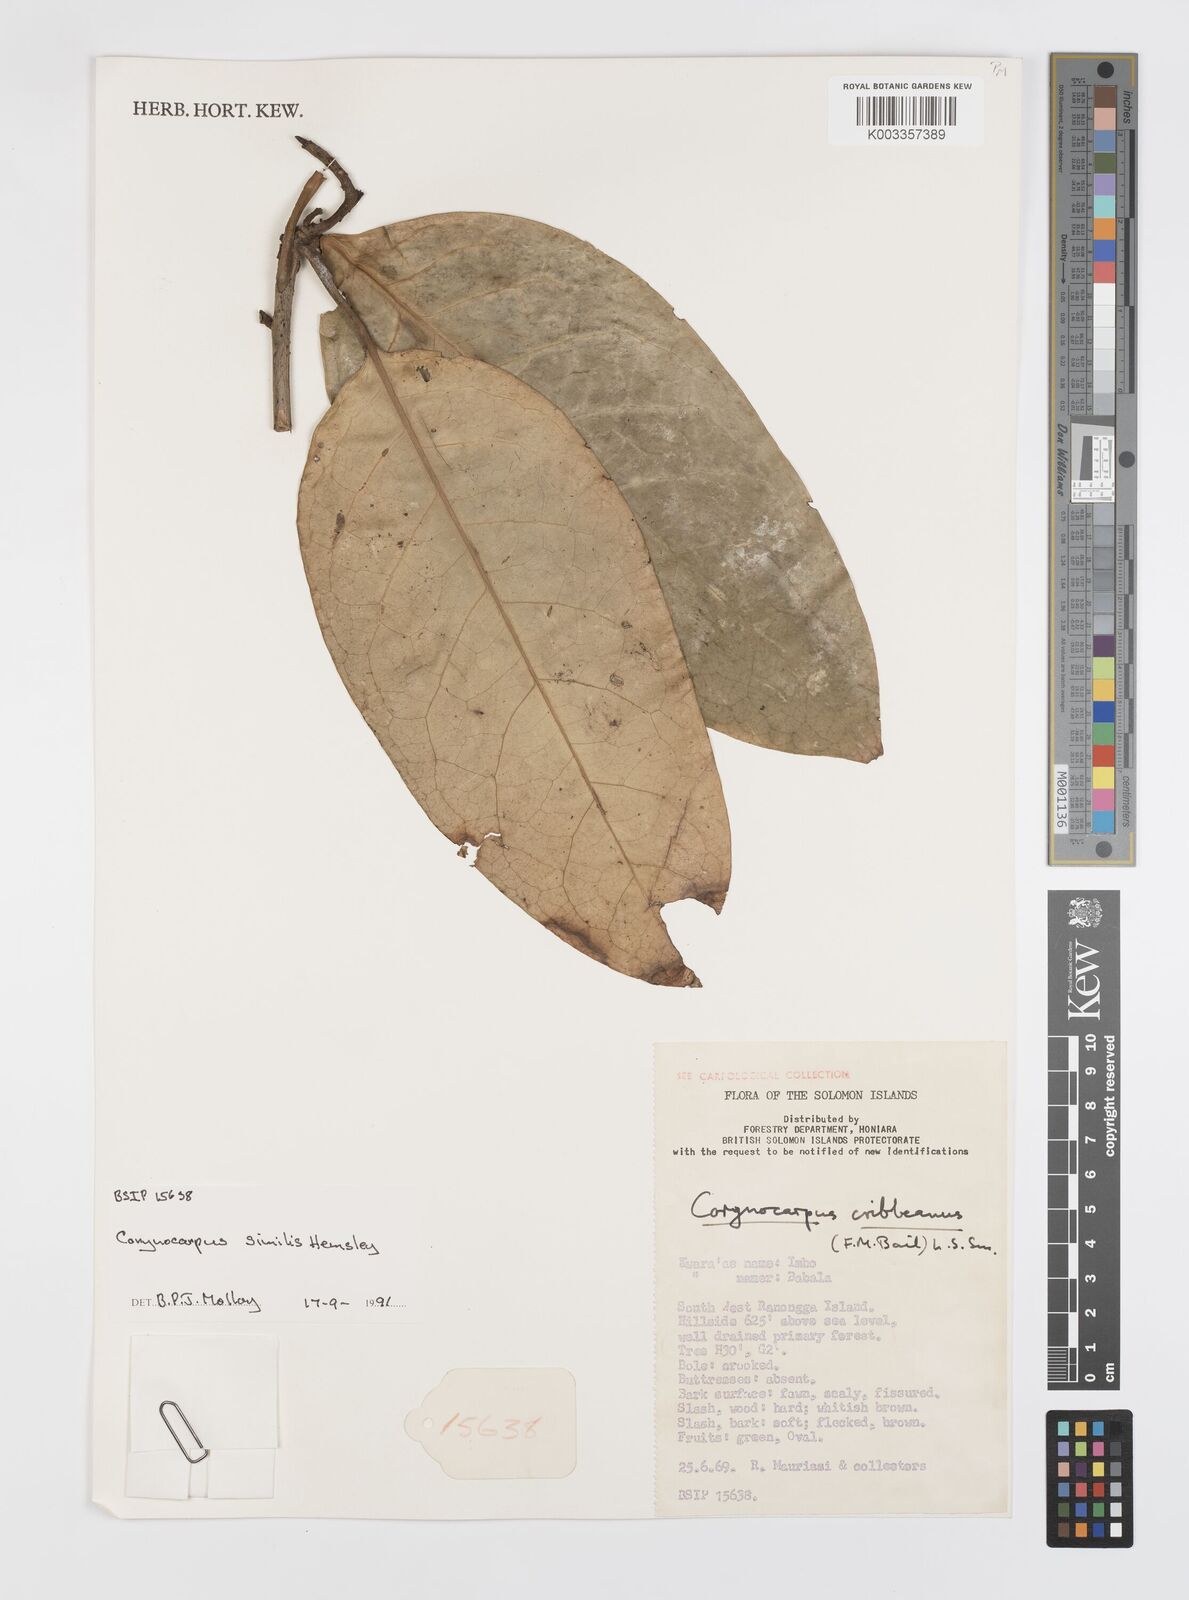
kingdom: Plantae
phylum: Tracheophyta
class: Magnoliopsida
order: Cucurbitales
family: Corynocarpaceae
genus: Corynocarpus
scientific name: Corynocarpus similis
